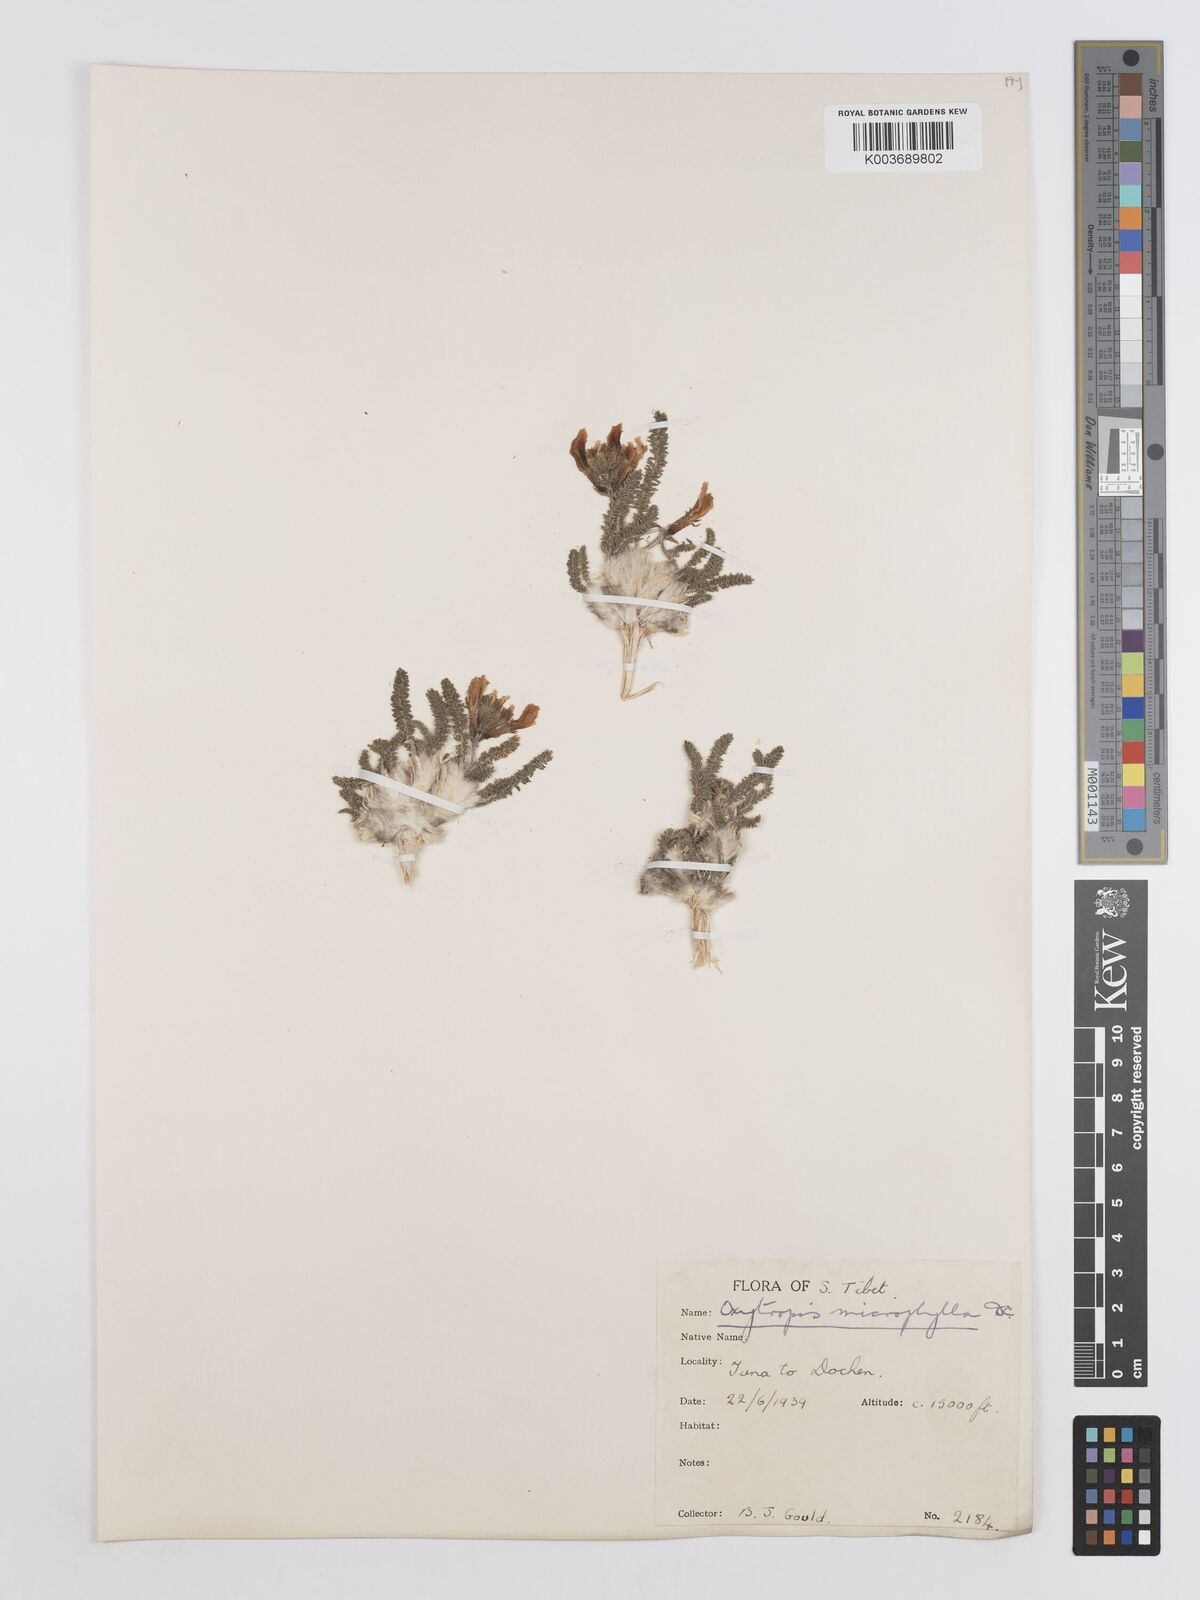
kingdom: Plantae
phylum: Tracheophyta
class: Magnoliopsida
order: Fabales
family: Fabaceae
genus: Oxytropis
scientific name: Oxytropis microphylla
